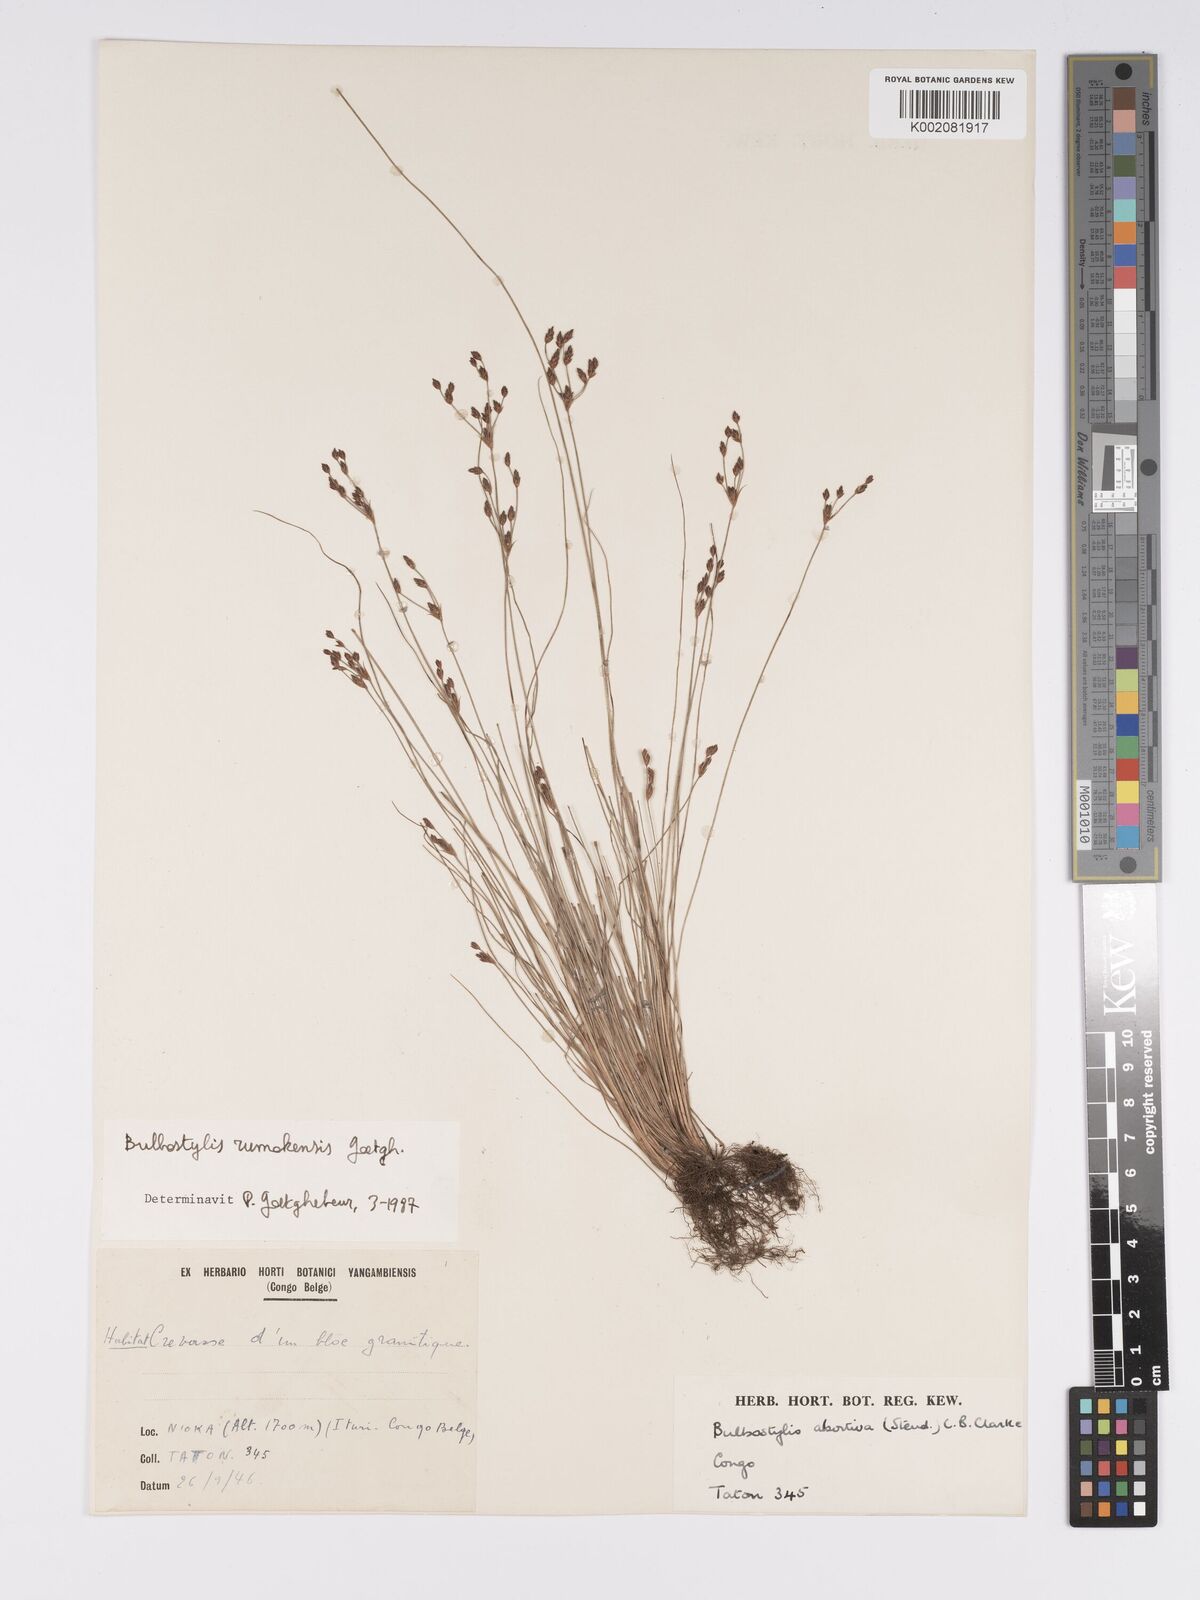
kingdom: Plantae
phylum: Tracheophyta
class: Liliopsida
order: Poales
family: Cyperaceae
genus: Bulbostylis
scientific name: Bulbostylis rumokensis
